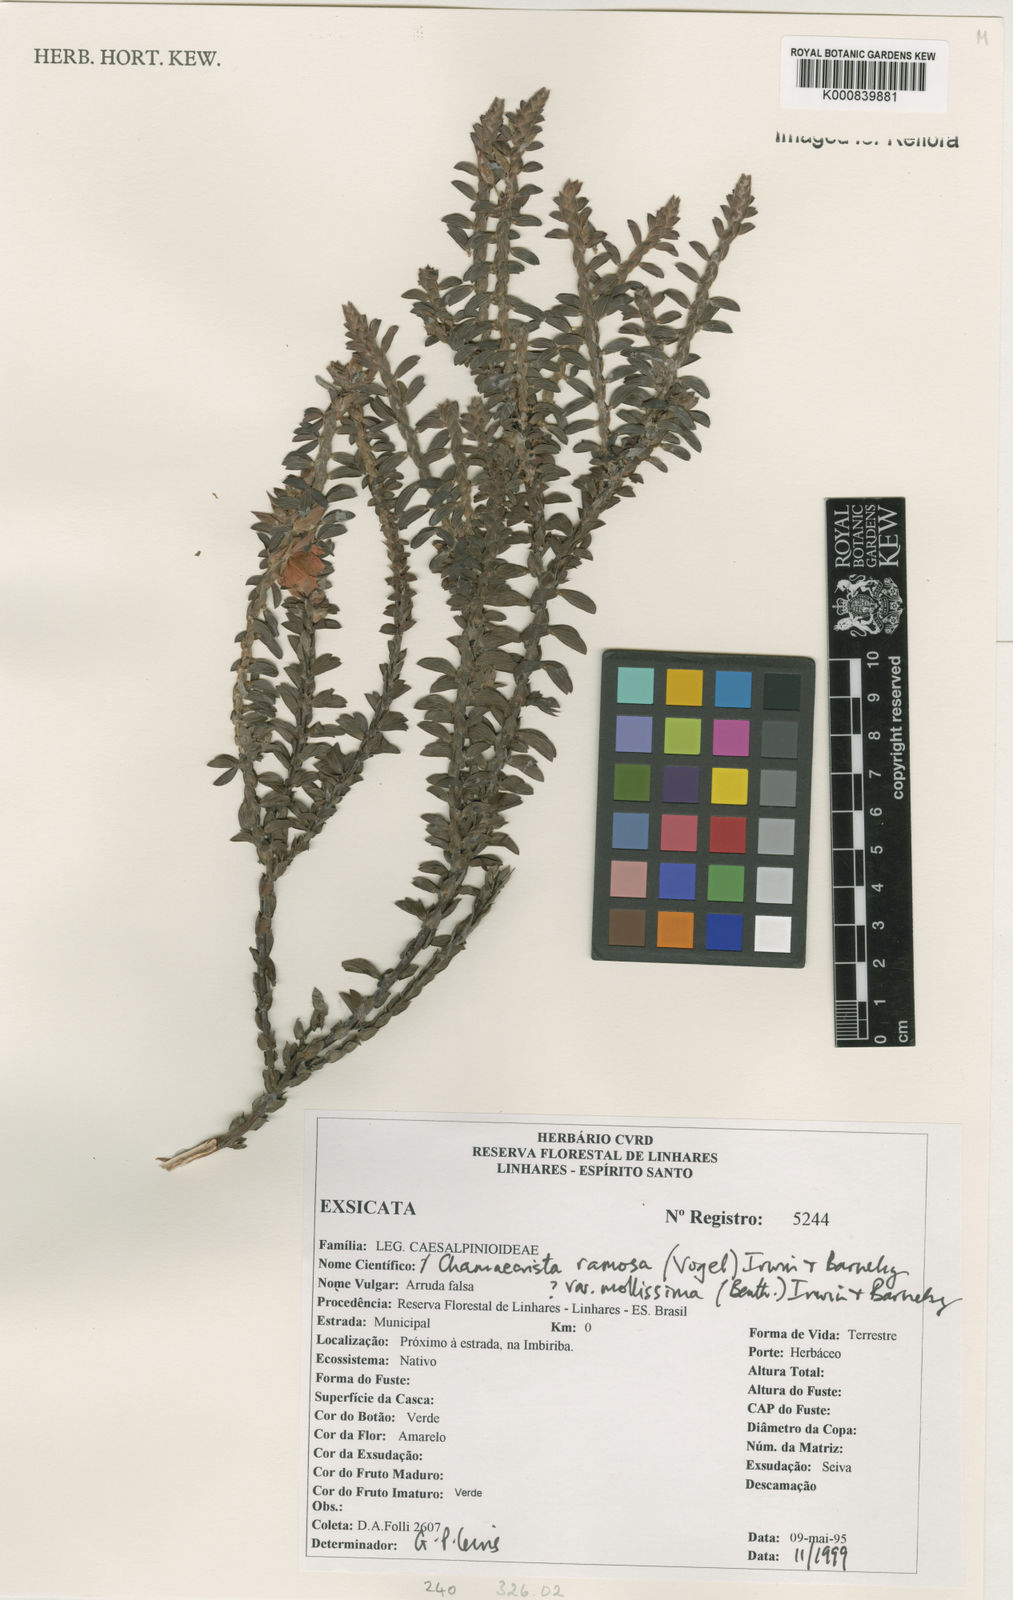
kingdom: Plantae
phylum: Tracheophyta
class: Magnoliopsida
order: Fabales
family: Fabaceae
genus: Chamaecrista
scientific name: Chamaecrista ramosa
